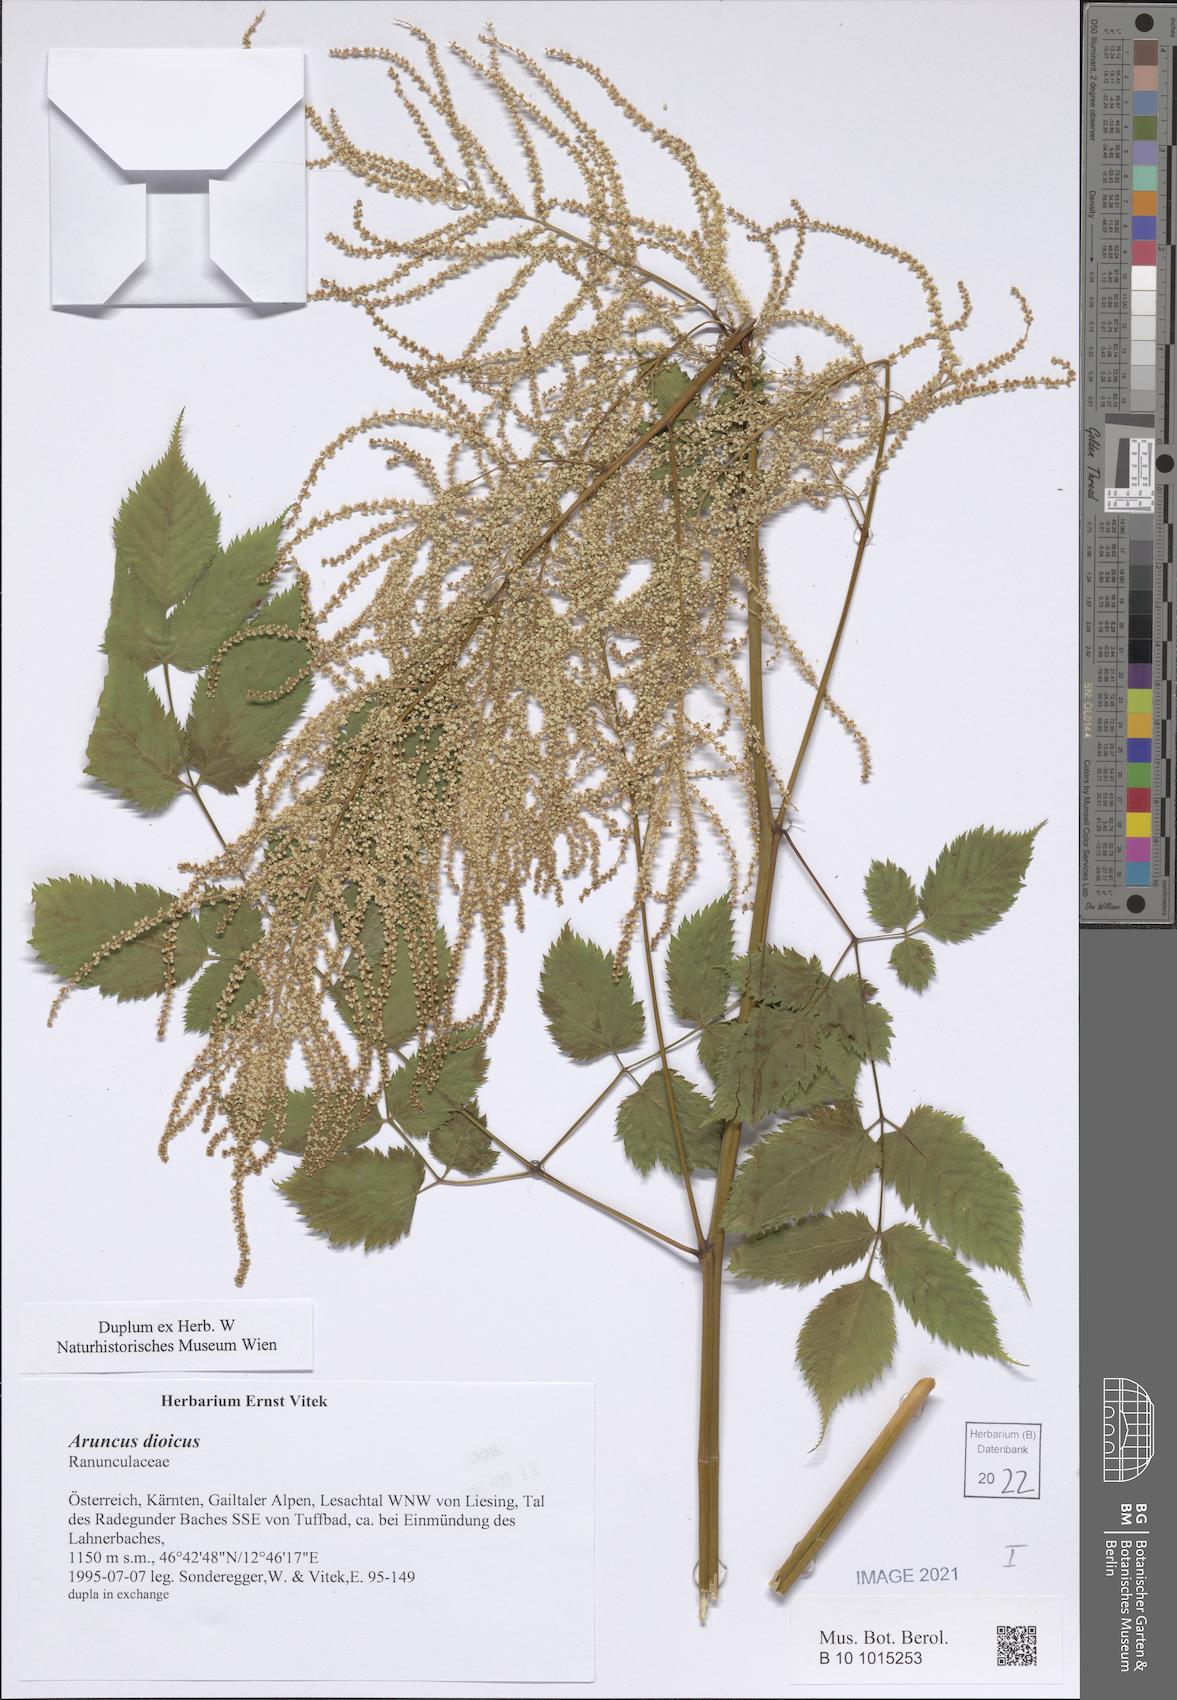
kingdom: Plantae
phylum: Tracheophyta
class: Magnoliopsida
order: Rosales
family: Rosaceae
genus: Aruncus
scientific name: Aruncus dioicus
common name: Buck's-beard
